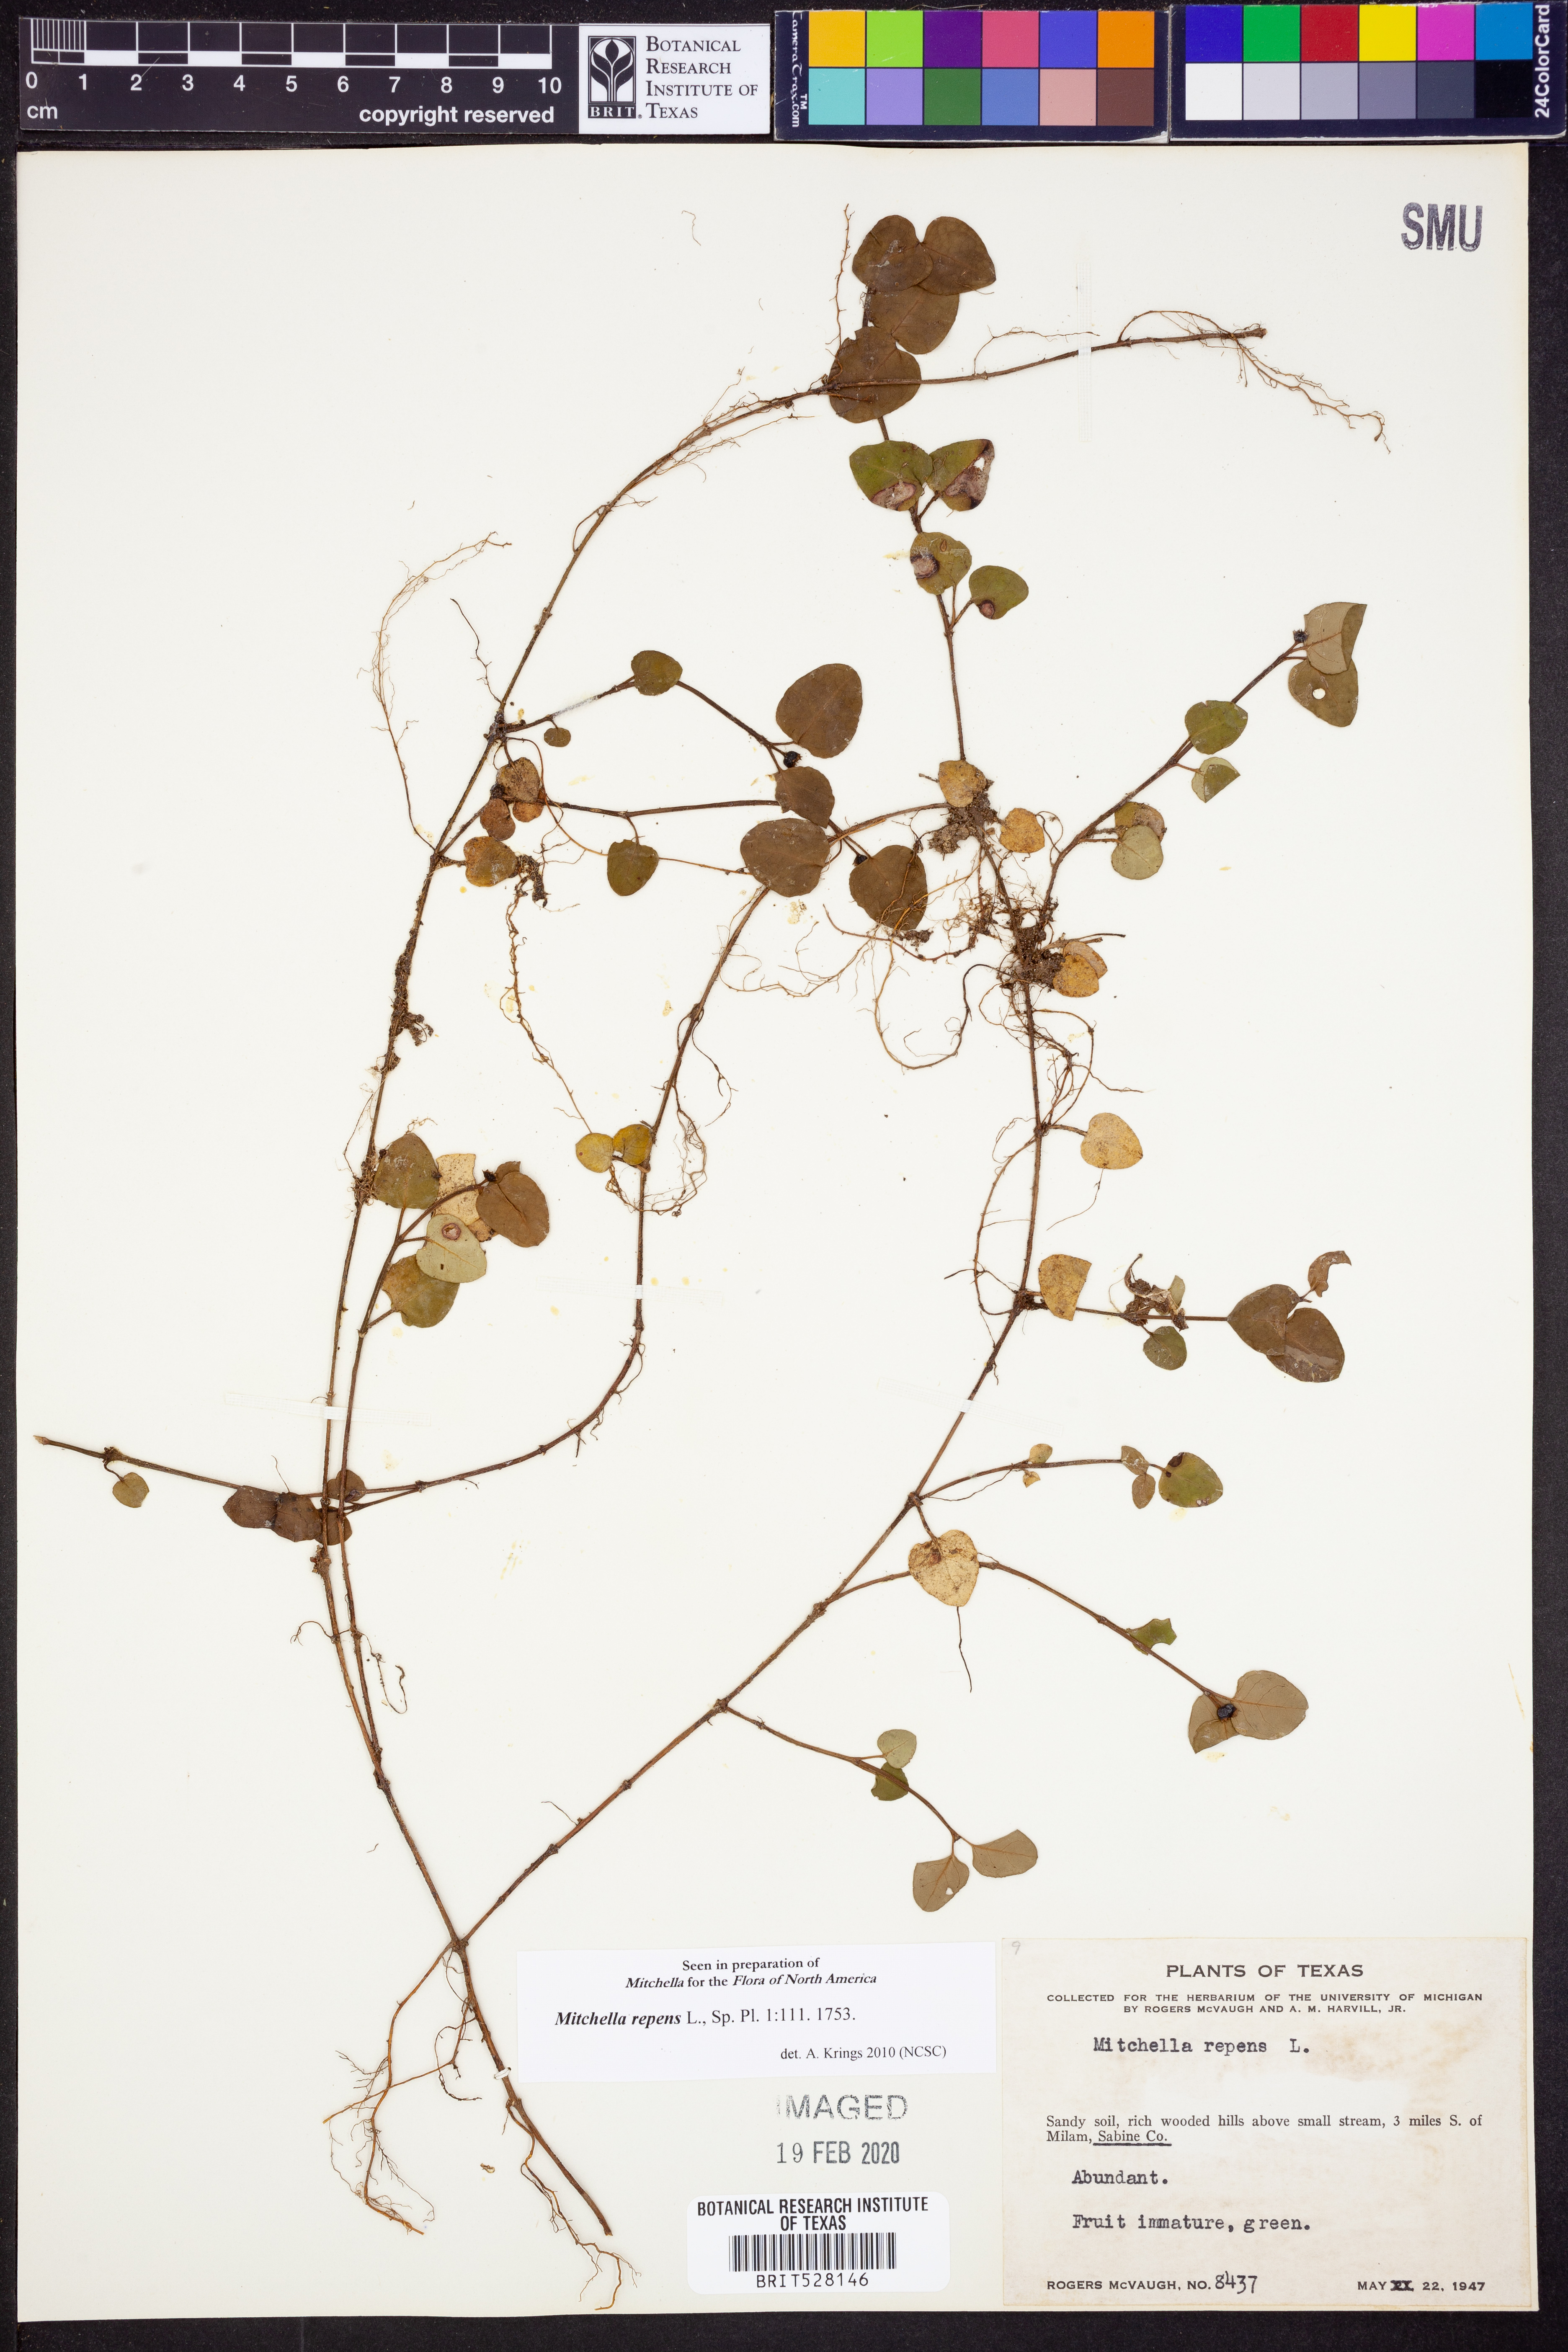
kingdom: Plantae
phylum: Tracheophyta
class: Magnoliopsida
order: Gentianales
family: Rubiaceae
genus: Mitchella
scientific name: Mitchella repens
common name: Partridge-berry
